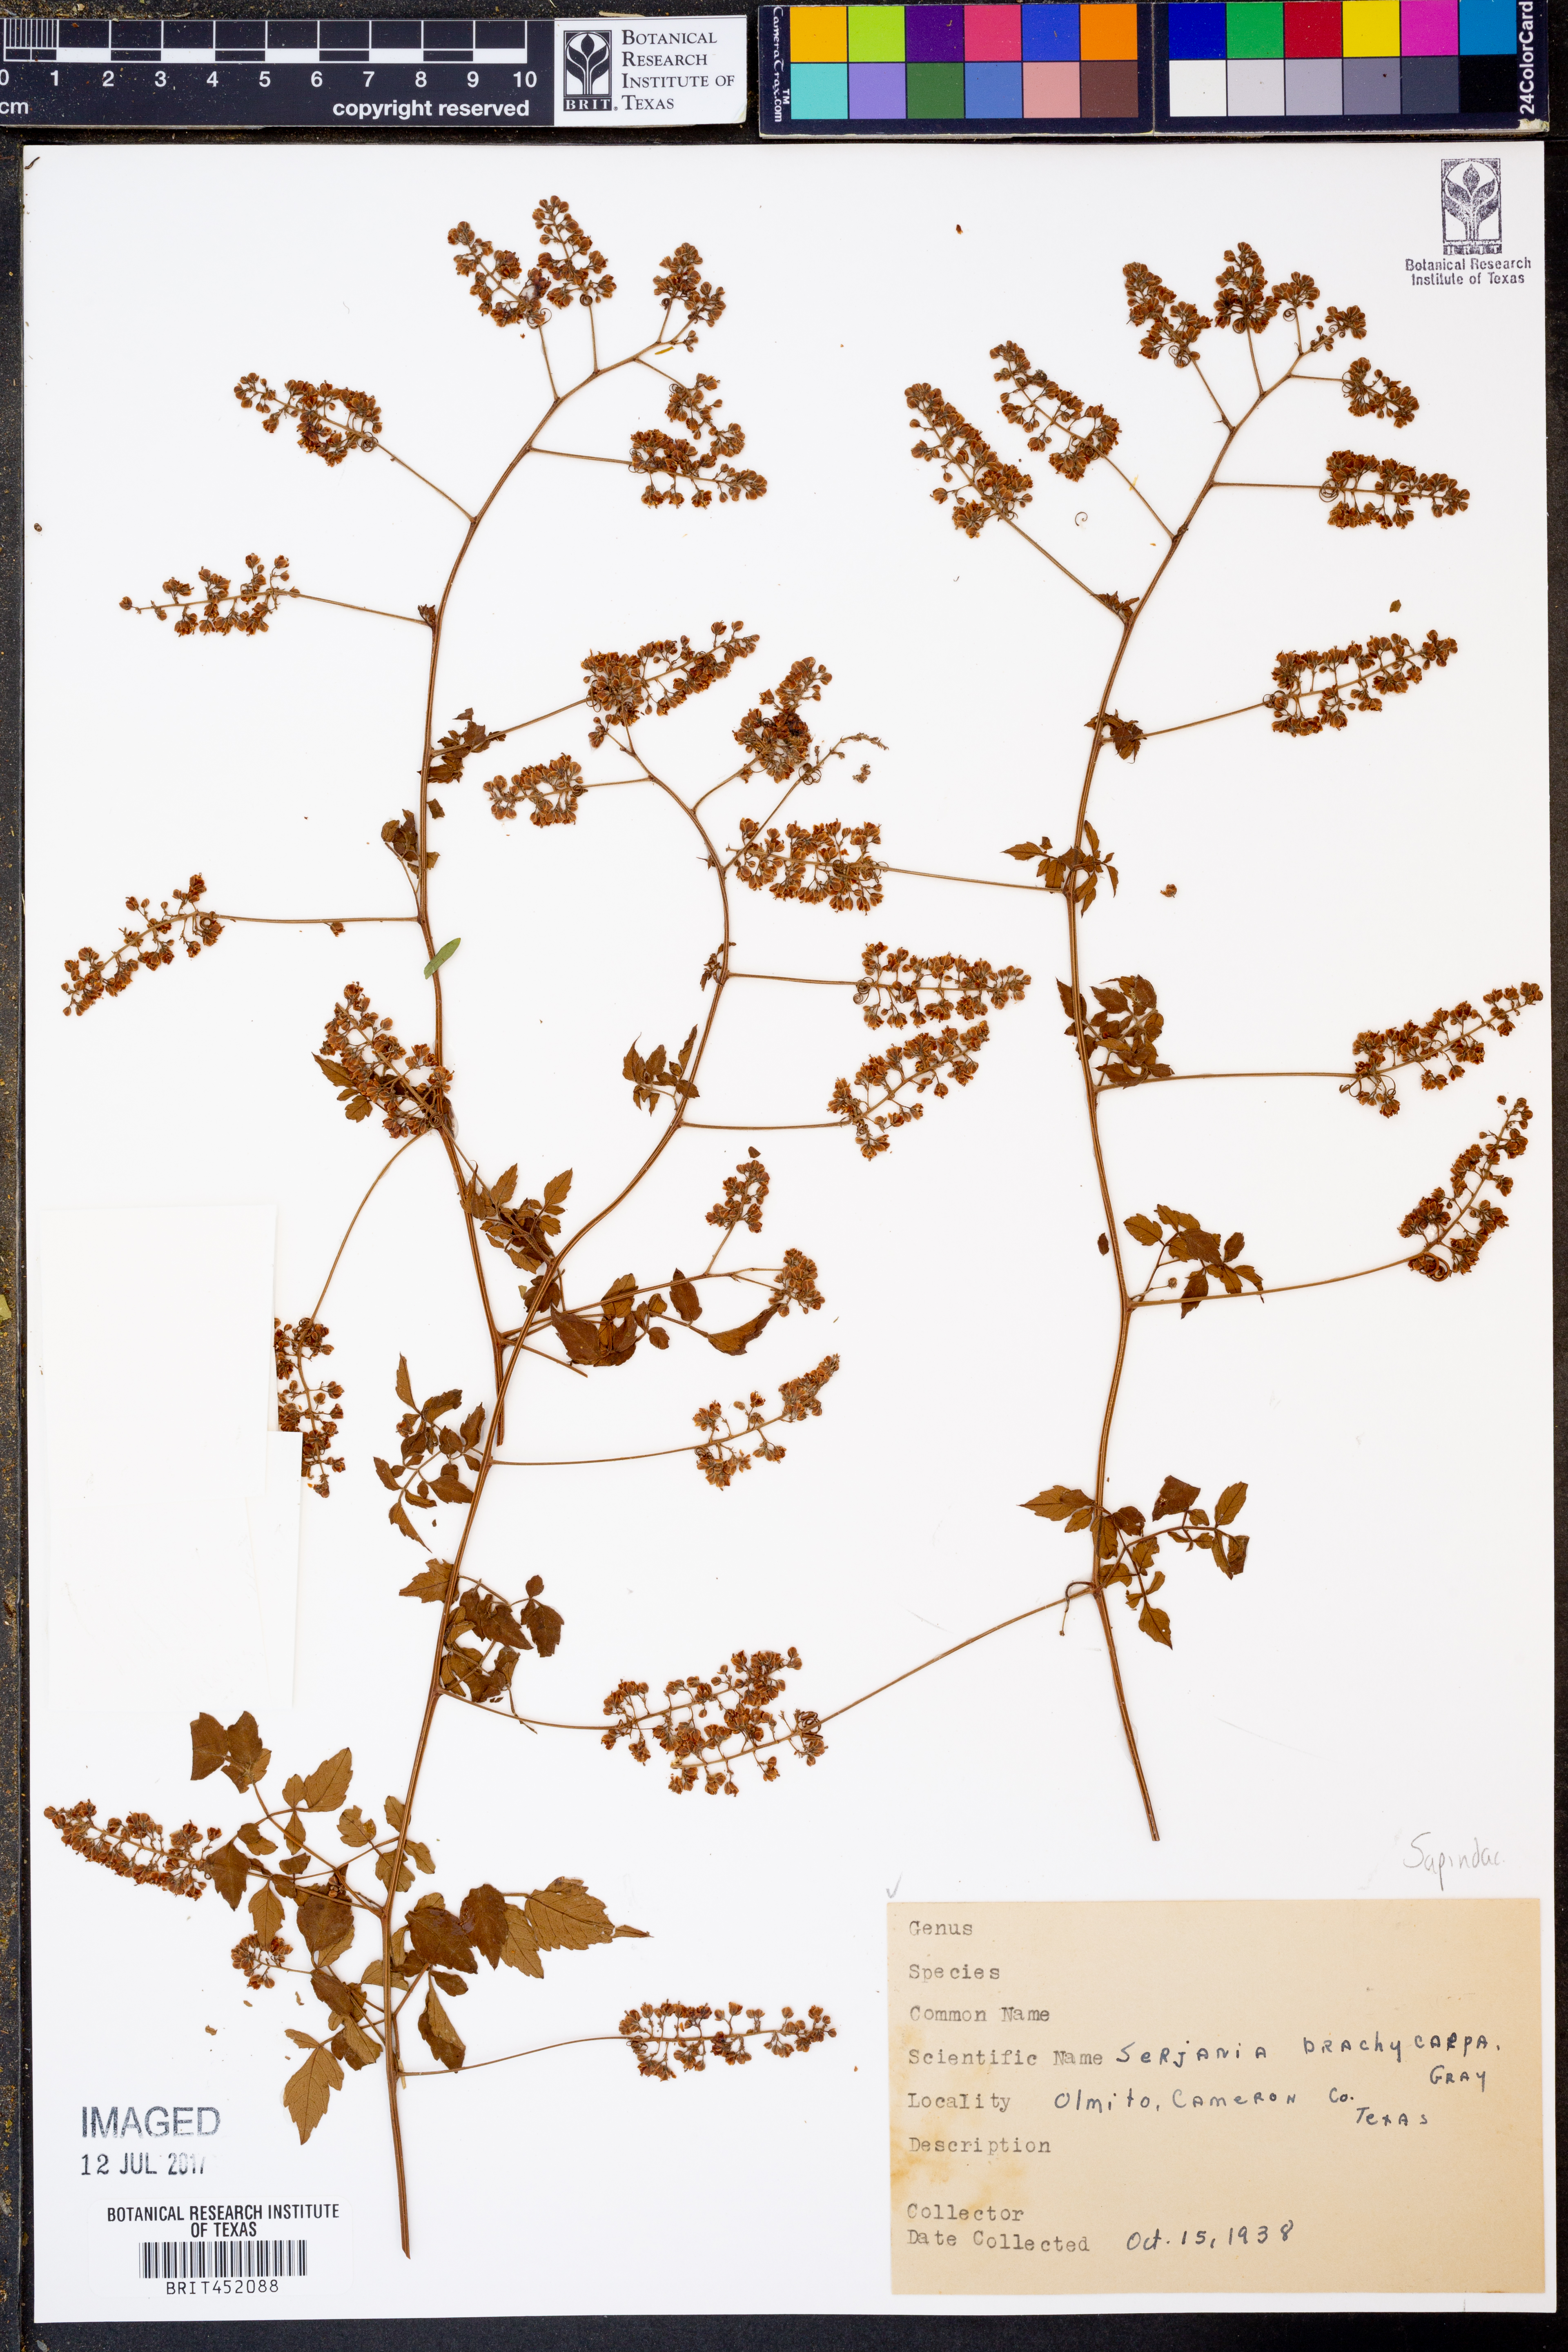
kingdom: Plantae
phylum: Tracheophyta
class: Magnoliopsida
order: Sapindales
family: Sapindaceae
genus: Serjania
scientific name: Serjania brachycarpa
